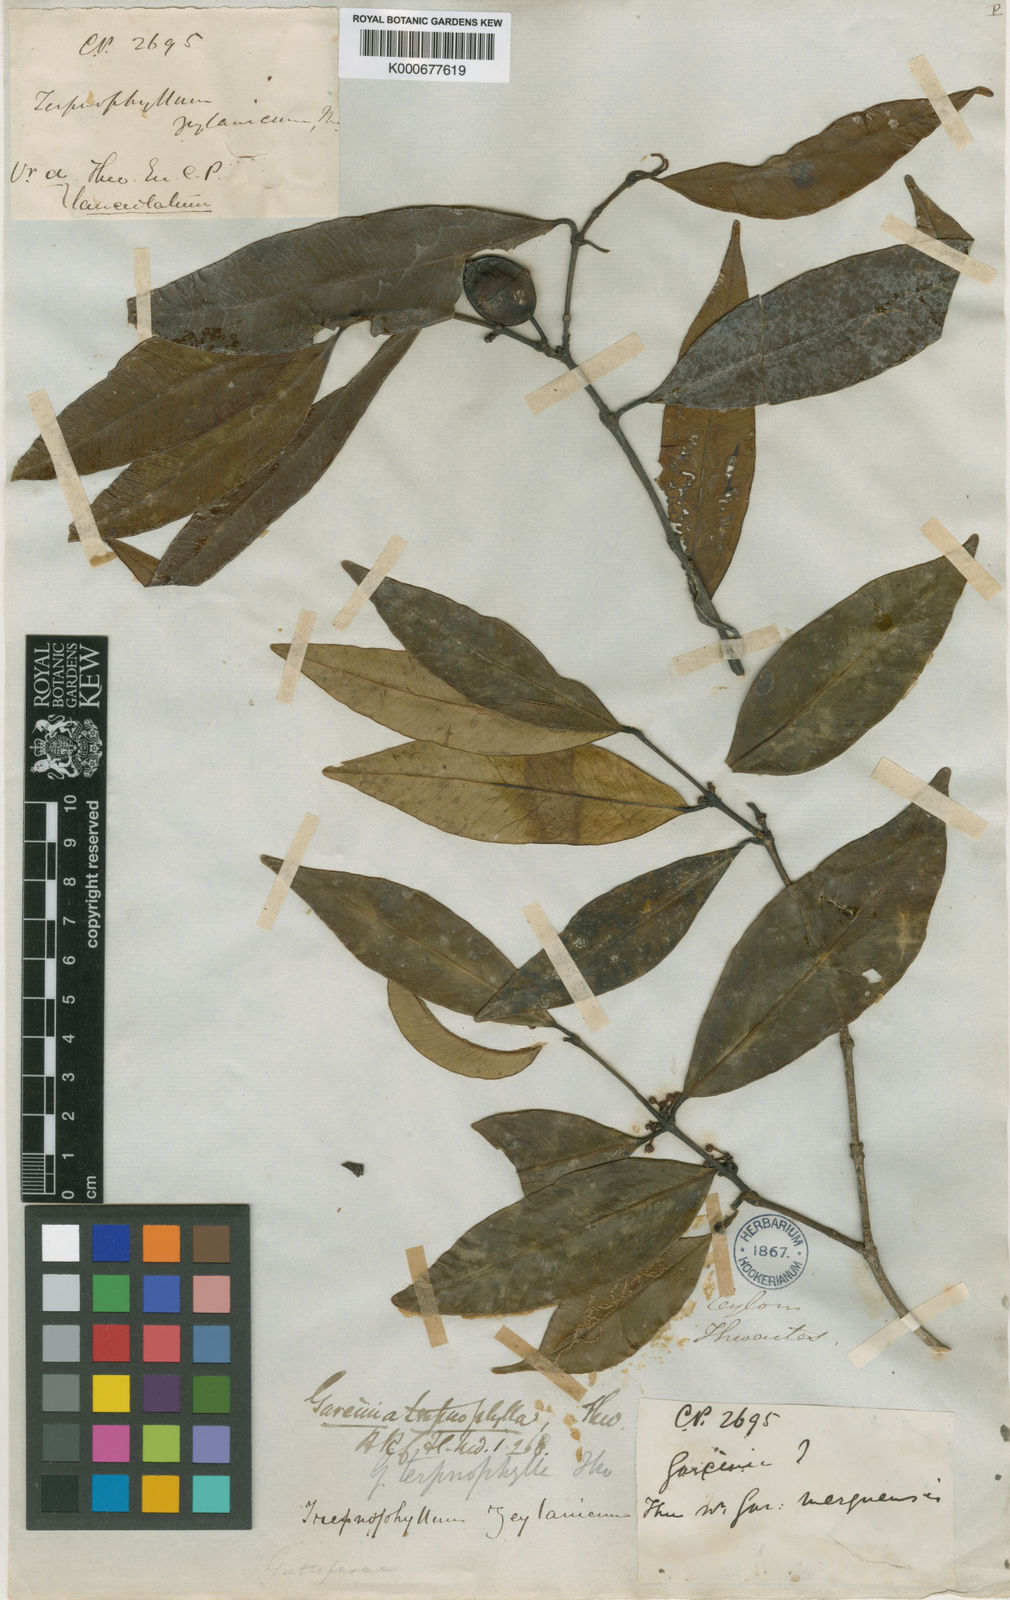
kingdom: Plantae
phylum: Tracheophyta
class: Magnoliopsida
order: Malpighiales
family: Clusiaceae
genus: Garcinia
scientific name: Garcinia terpnophylla
